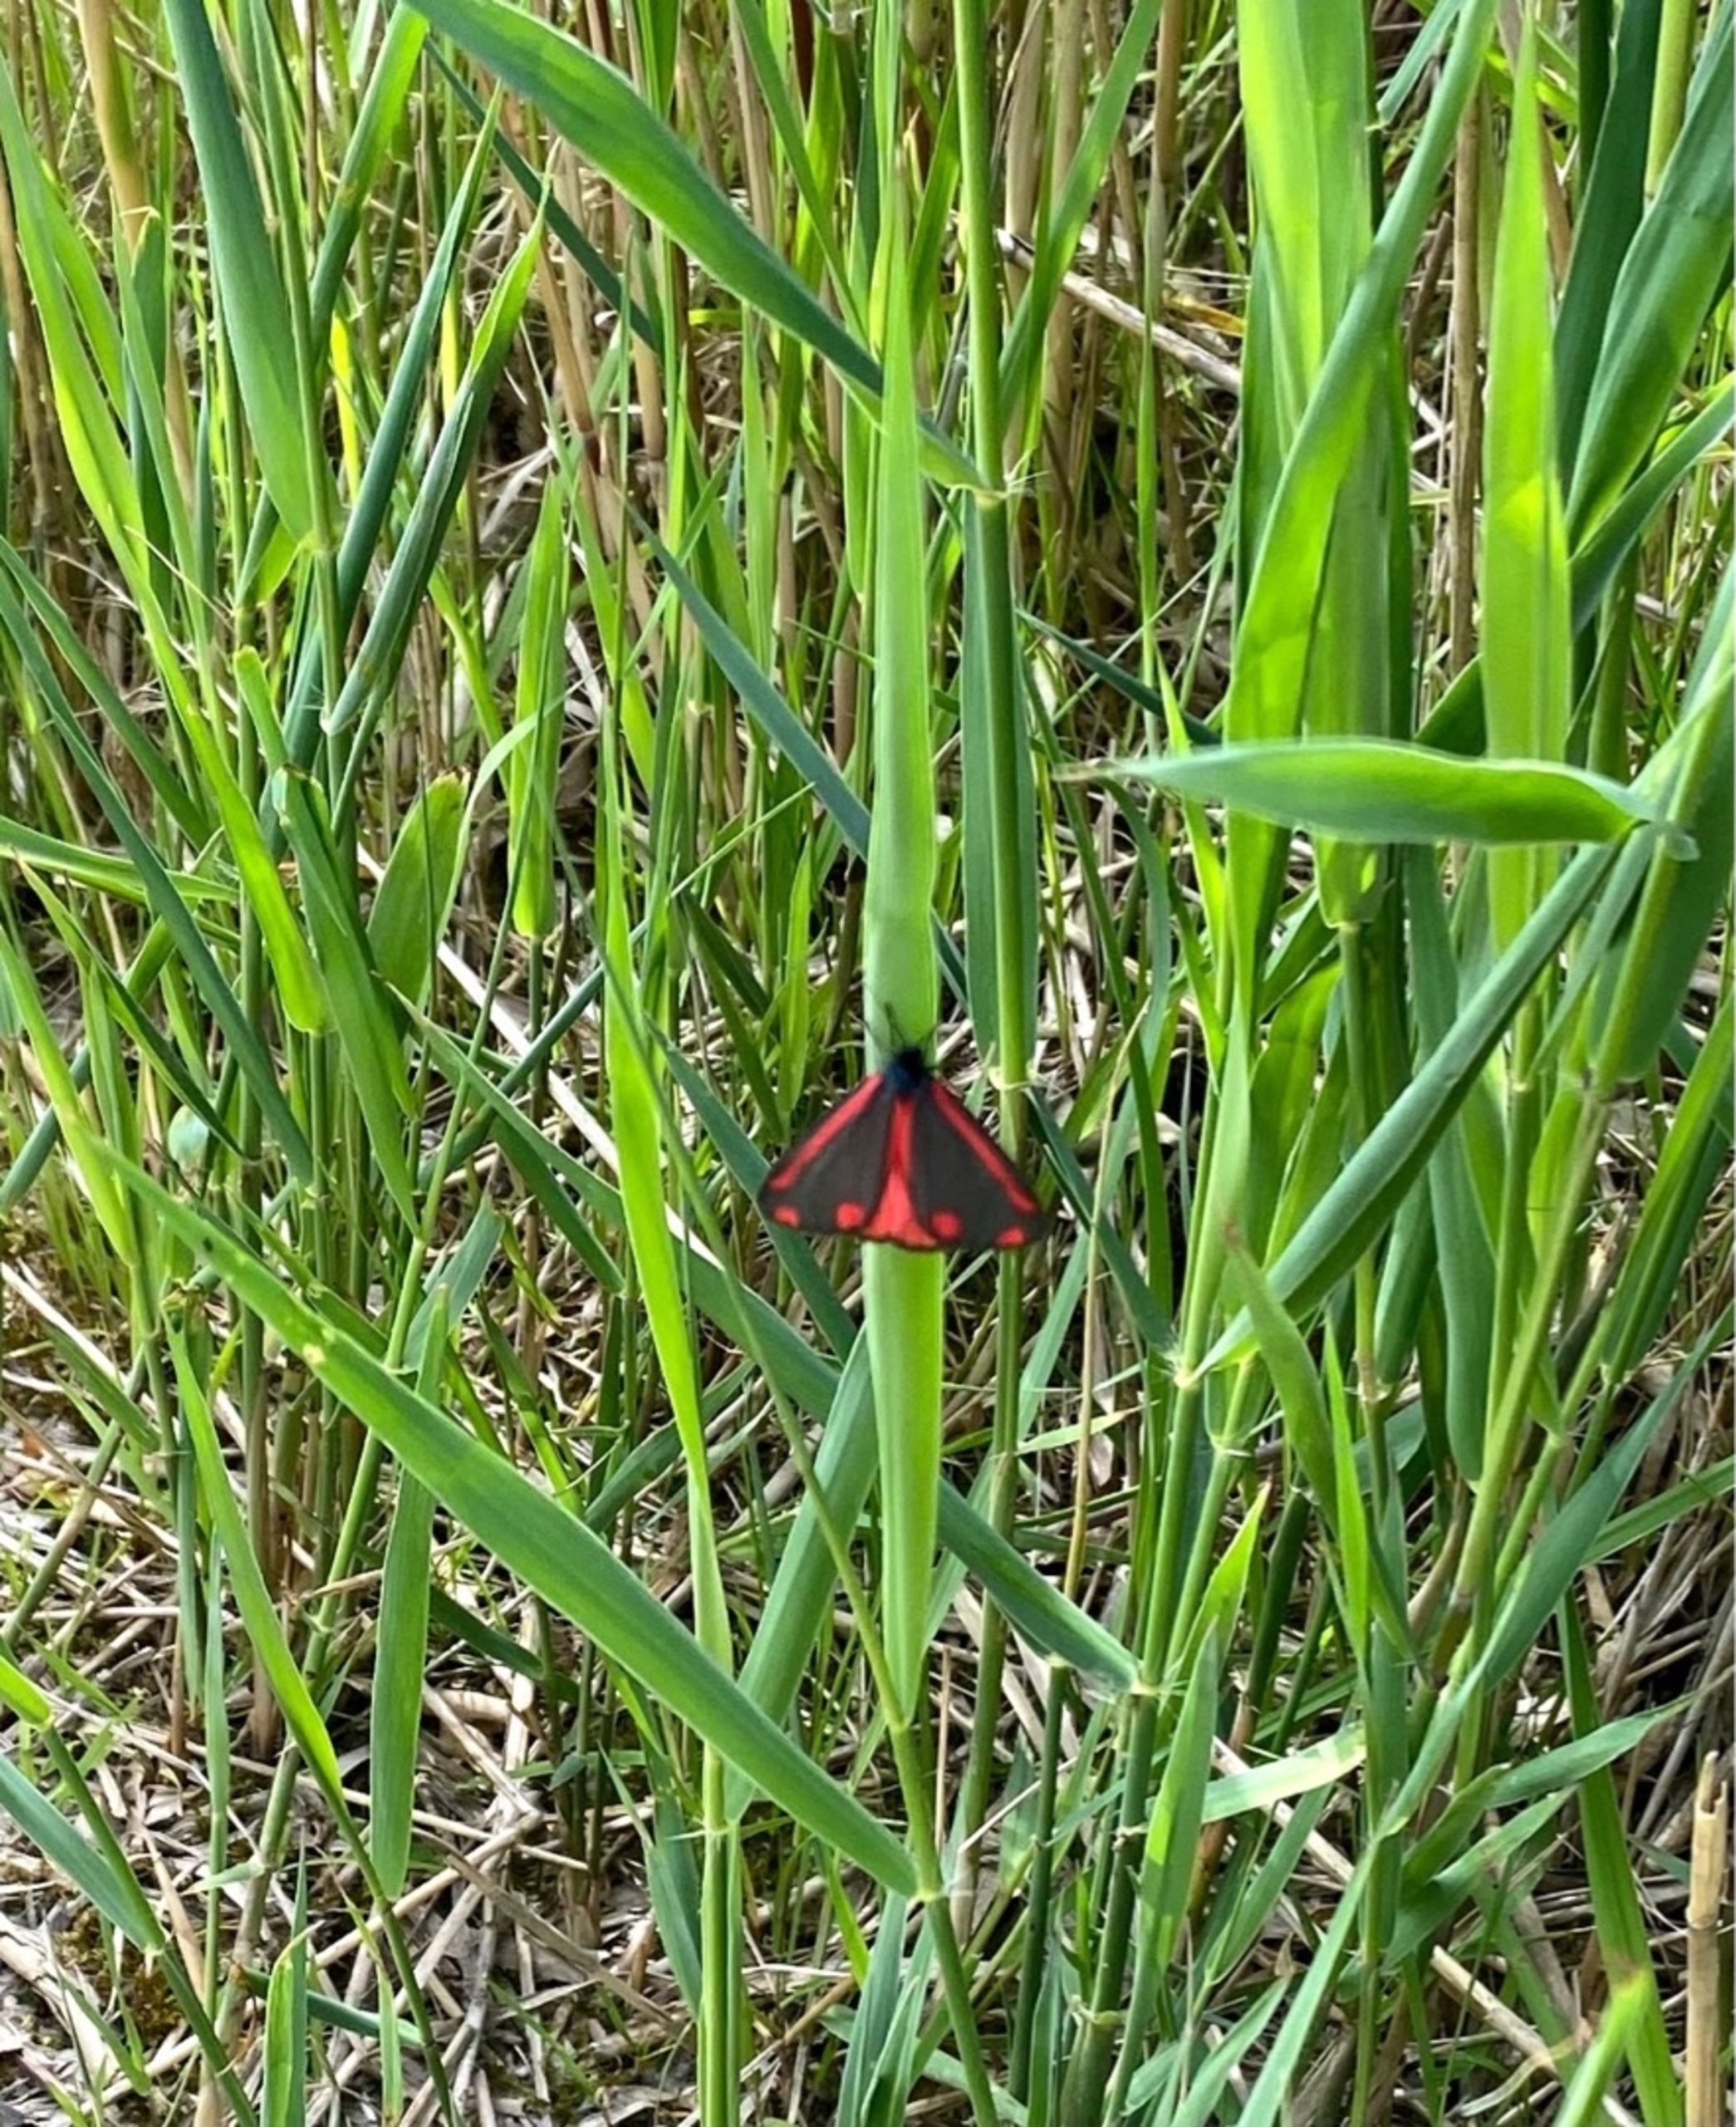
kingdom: Animalia
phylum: Arthropoda
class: Insecta
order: Lepidoptera
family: Erebidae
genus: Tyria
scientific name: Tyria jacobaeae
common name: Blodplet
